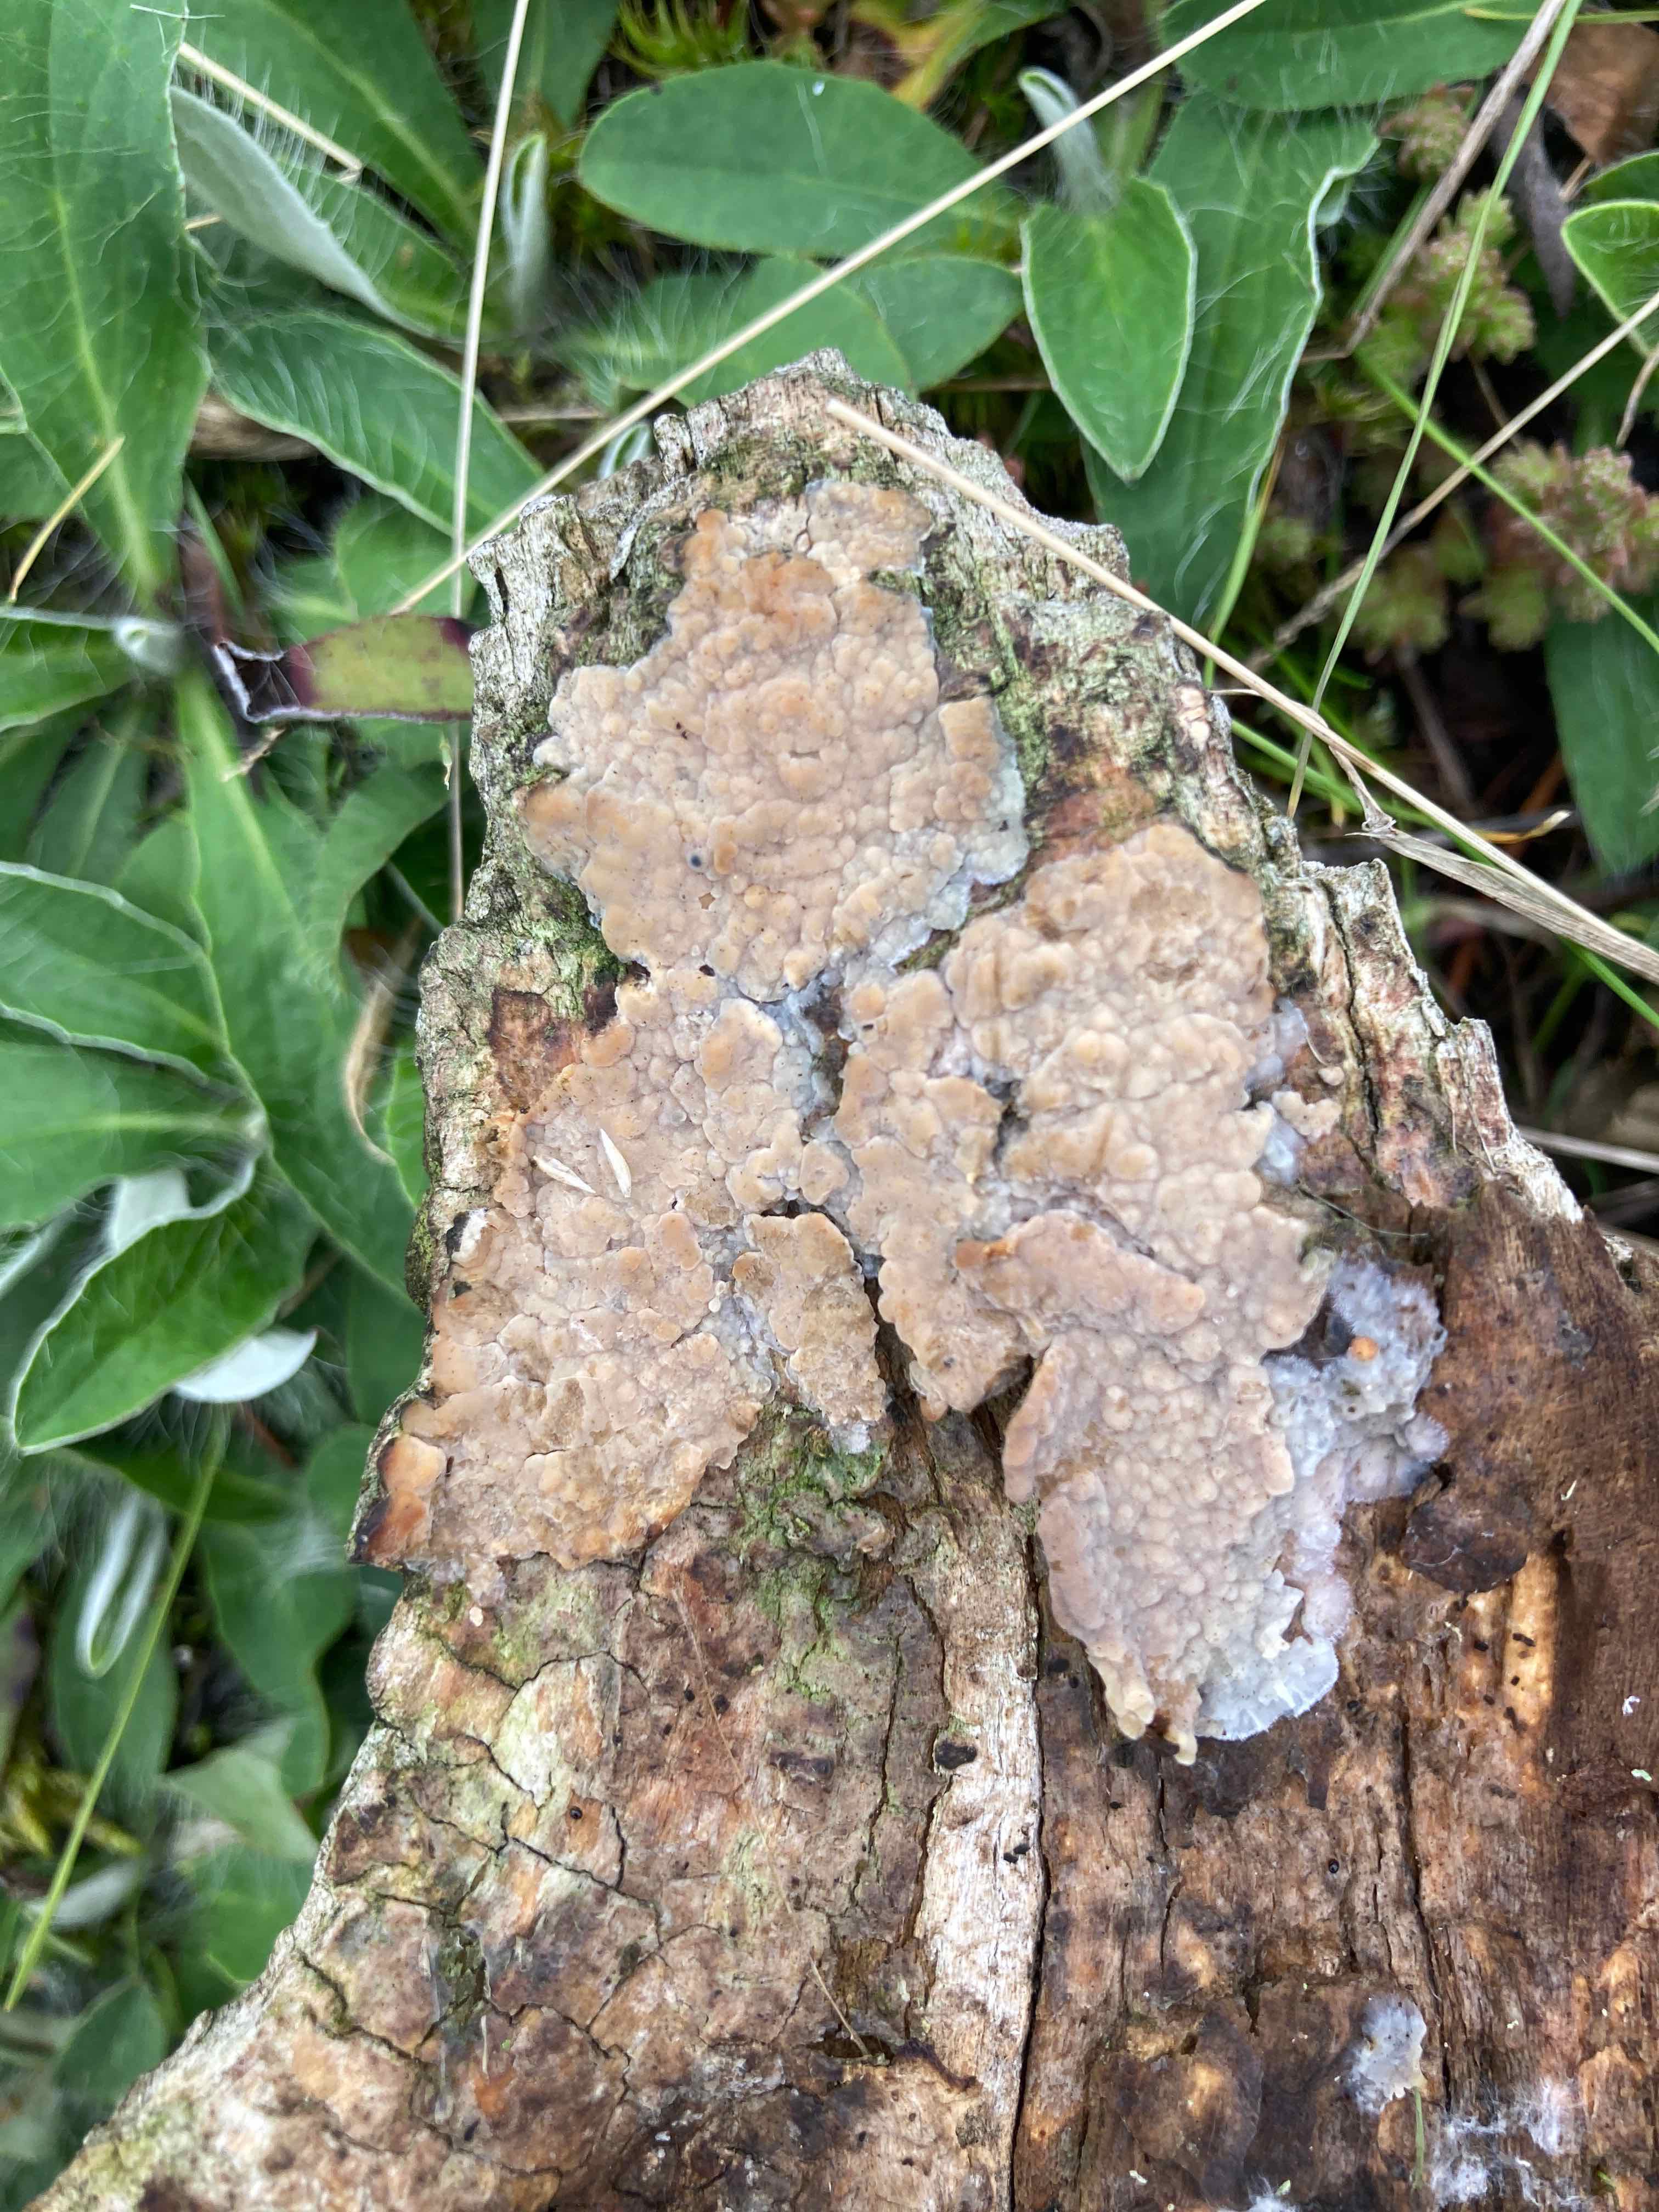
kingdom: Fungi
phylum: Basidiomycota
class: Agaricomycetes
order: Agaricales
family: Radulomycetaceae
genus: Radulomyces
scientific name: Radulomyces confluens
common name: glat naftalinskind
